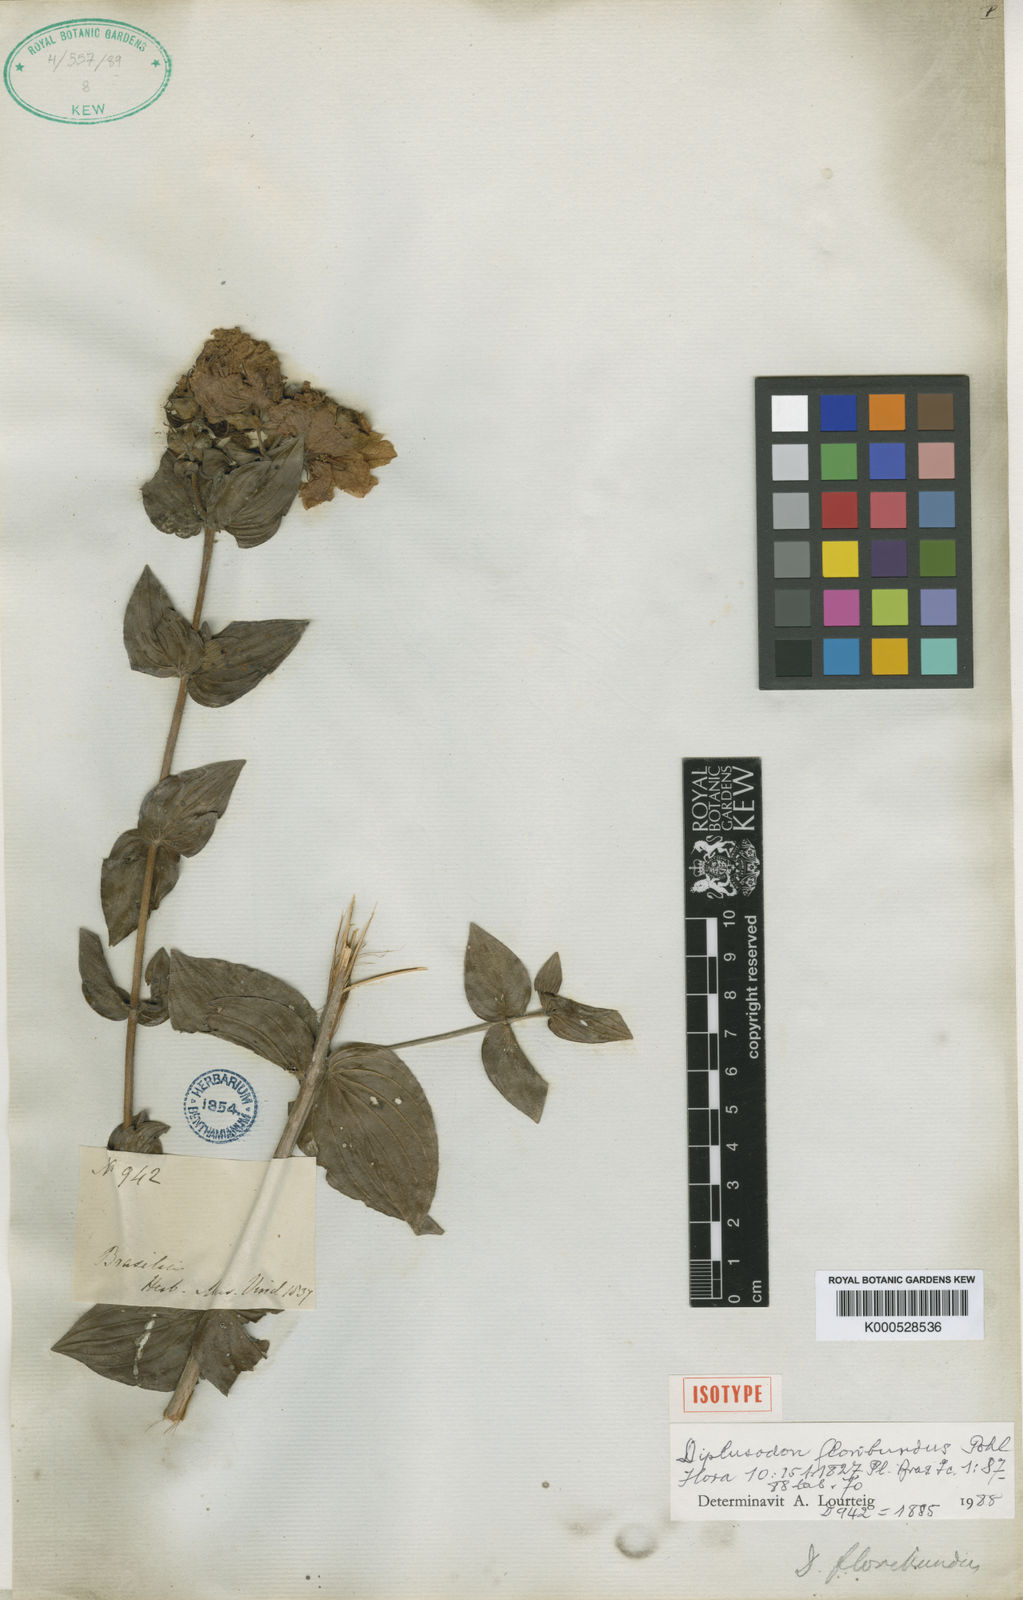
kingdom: Plantae
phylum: Tracheophyta
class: Magnoliopsida
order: Myrtales
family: Lythraceae
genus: Diplusodon
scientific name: Diplusodon floribundus
